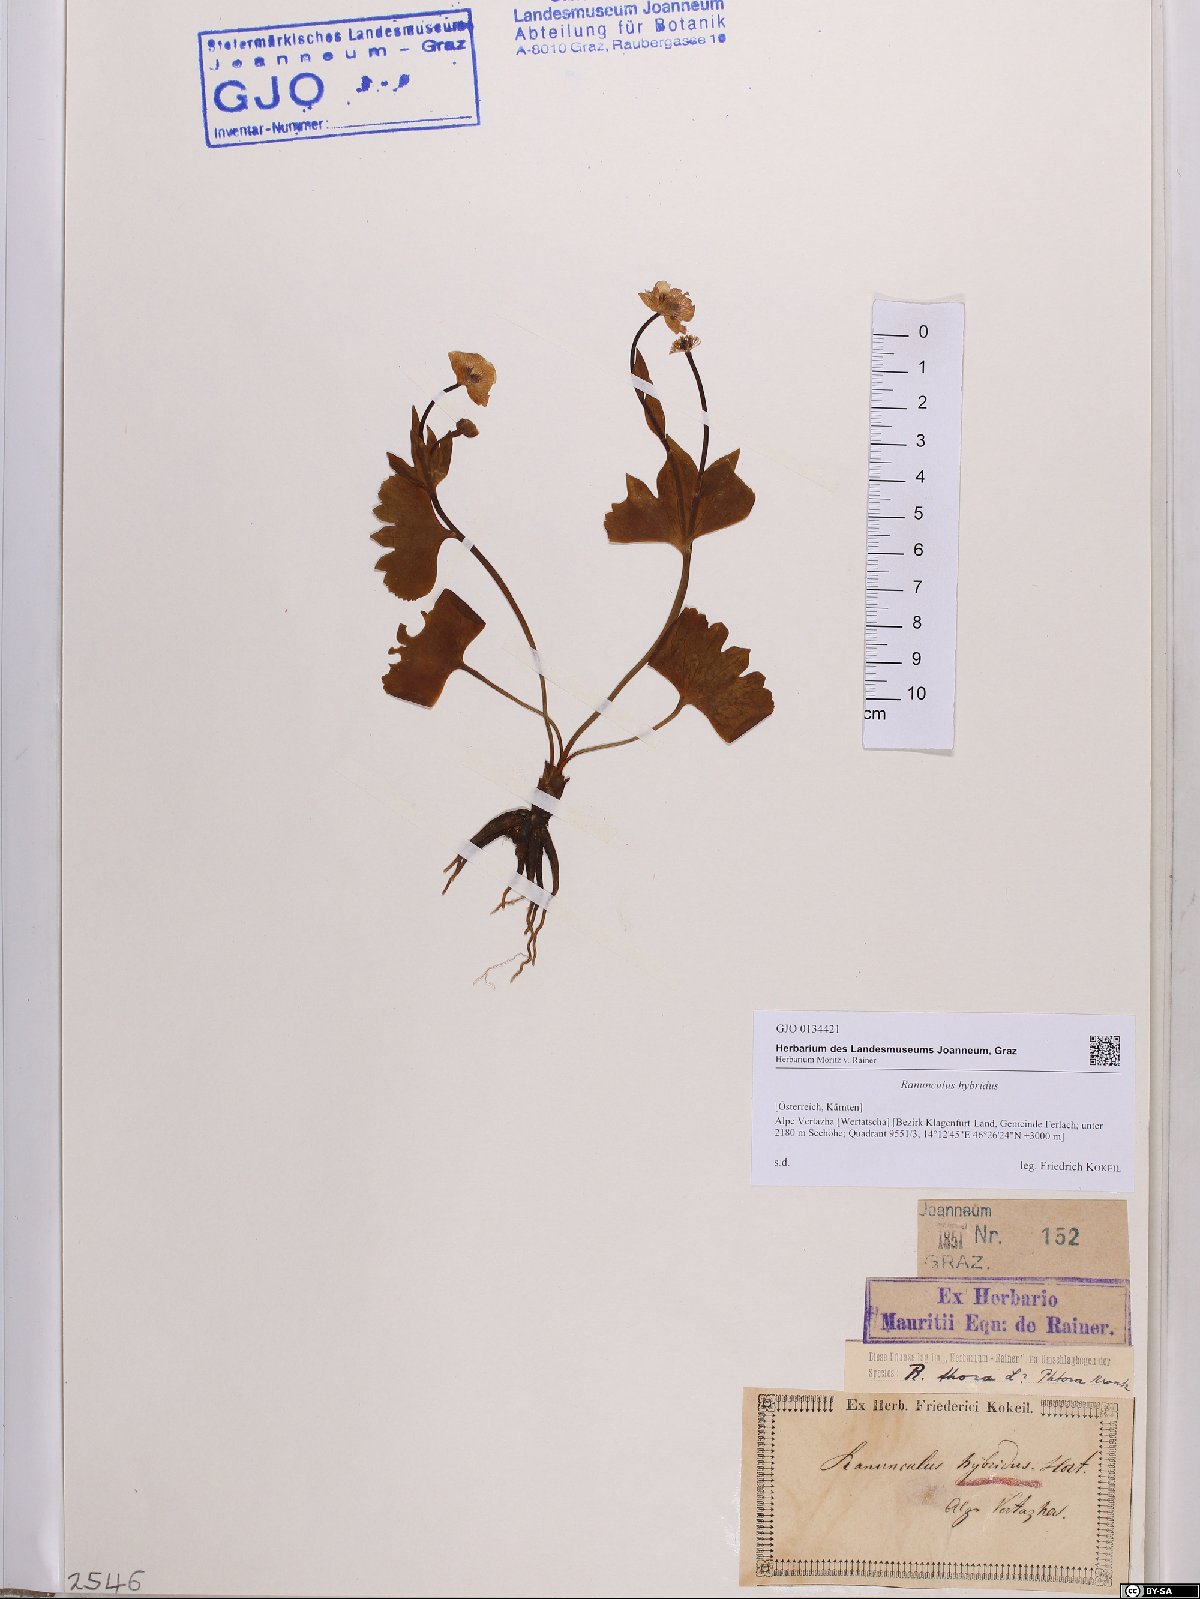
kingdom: Plantae
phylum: Tracheophyta
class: Magnoliopsida
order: Ranunculales
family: Ranunculaceae
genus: Ranunculus
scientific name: Ranunculus hybridus
